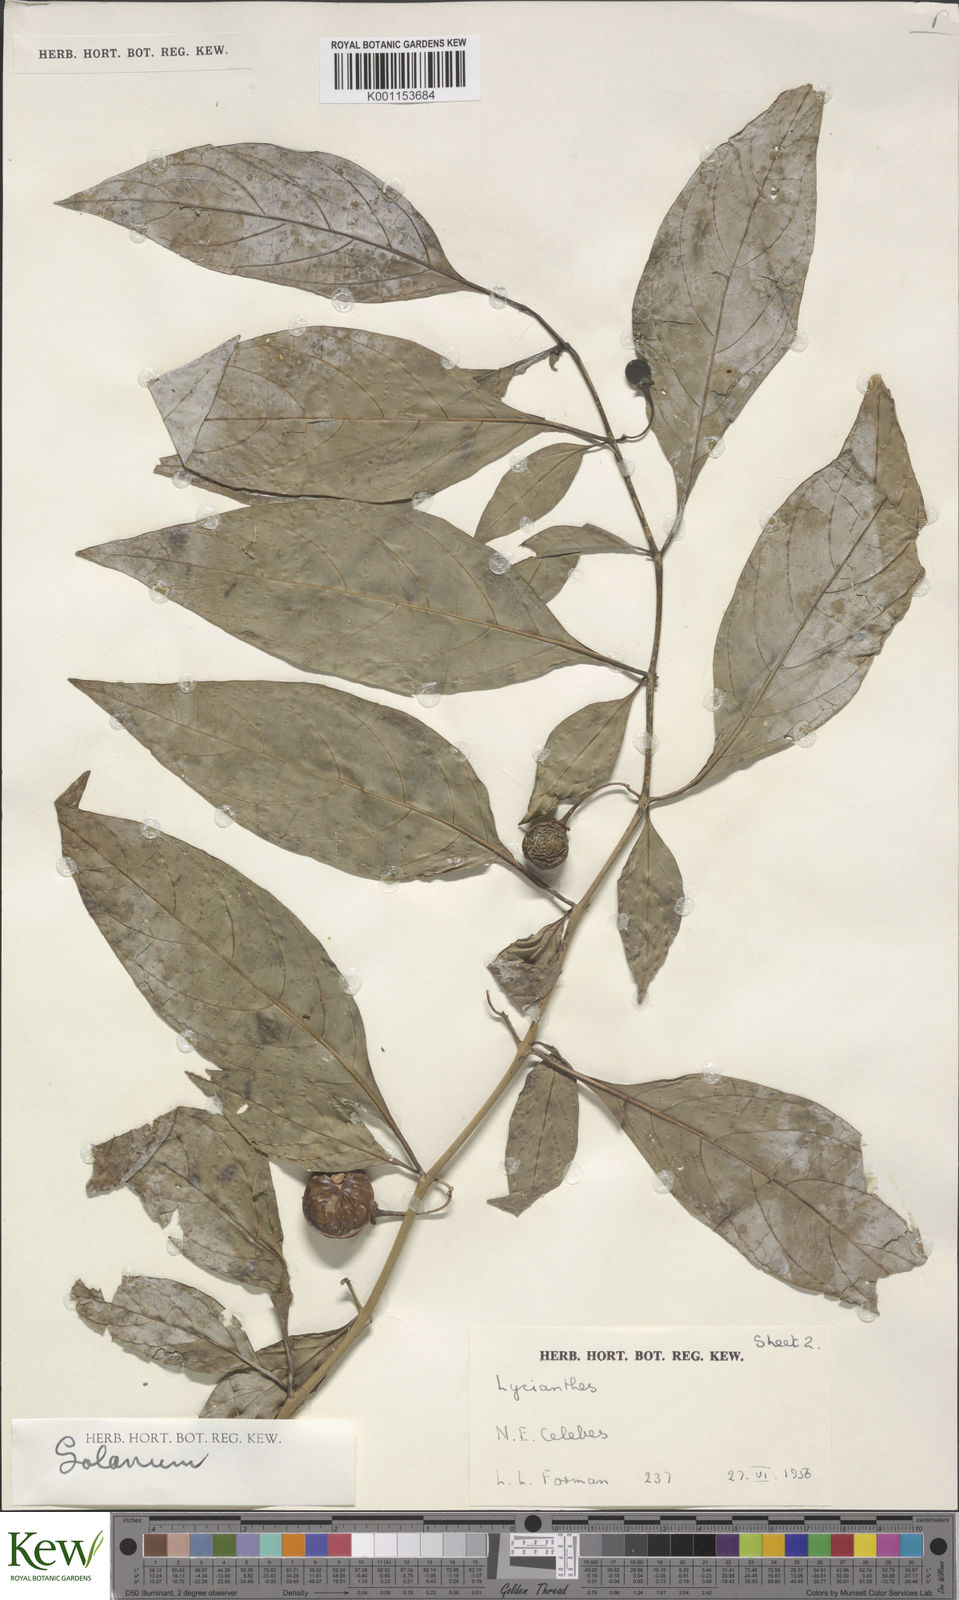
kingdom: Plantae
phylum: Tracheophyta
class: Magnoliopsida
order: Solanales
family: Solanaceae
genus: Solanum
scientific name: Solanum
